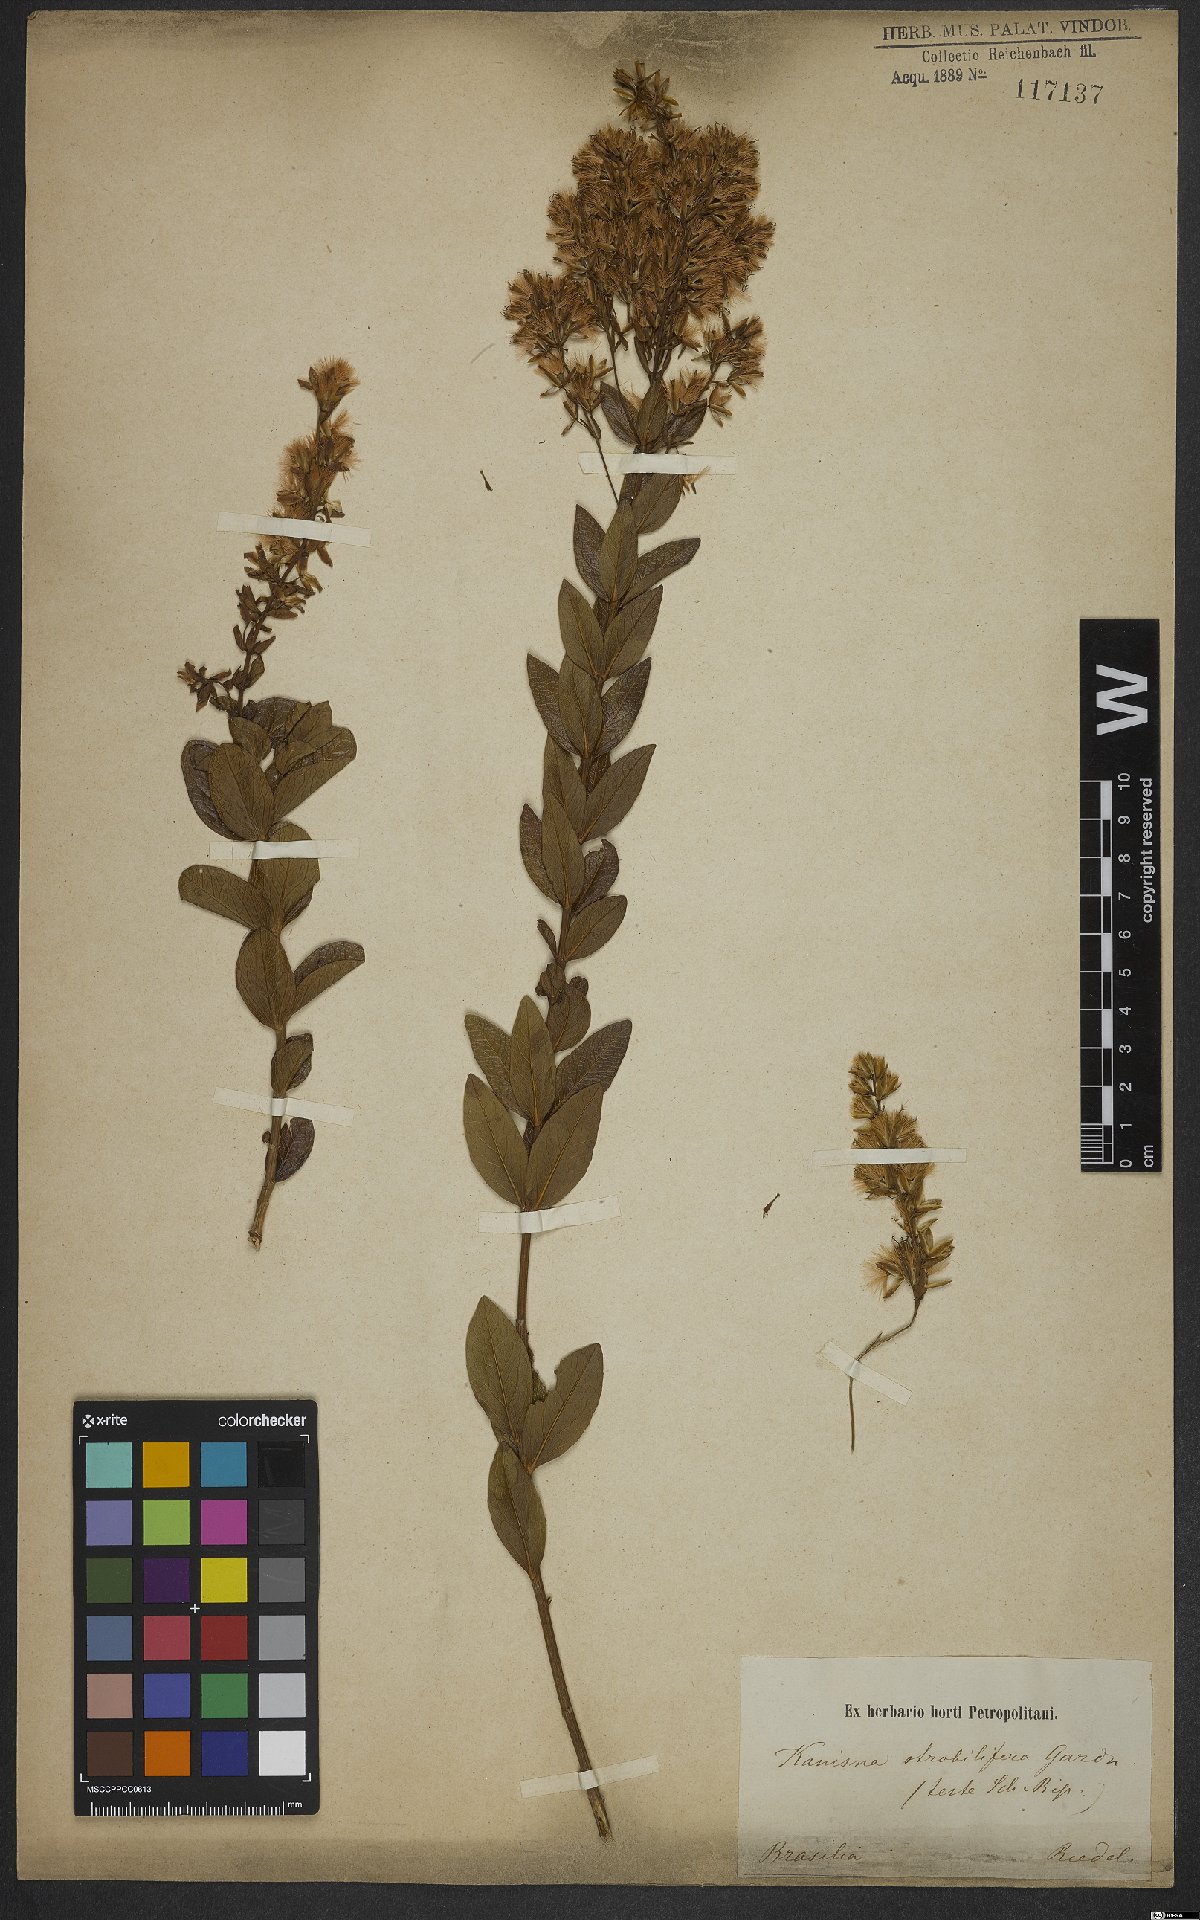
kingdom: Plantae
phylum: Tracheophyta
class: Magnoliopsida
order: Asterales
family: Asteraceae
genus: Mikania
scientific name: Mikania oblongifolia
